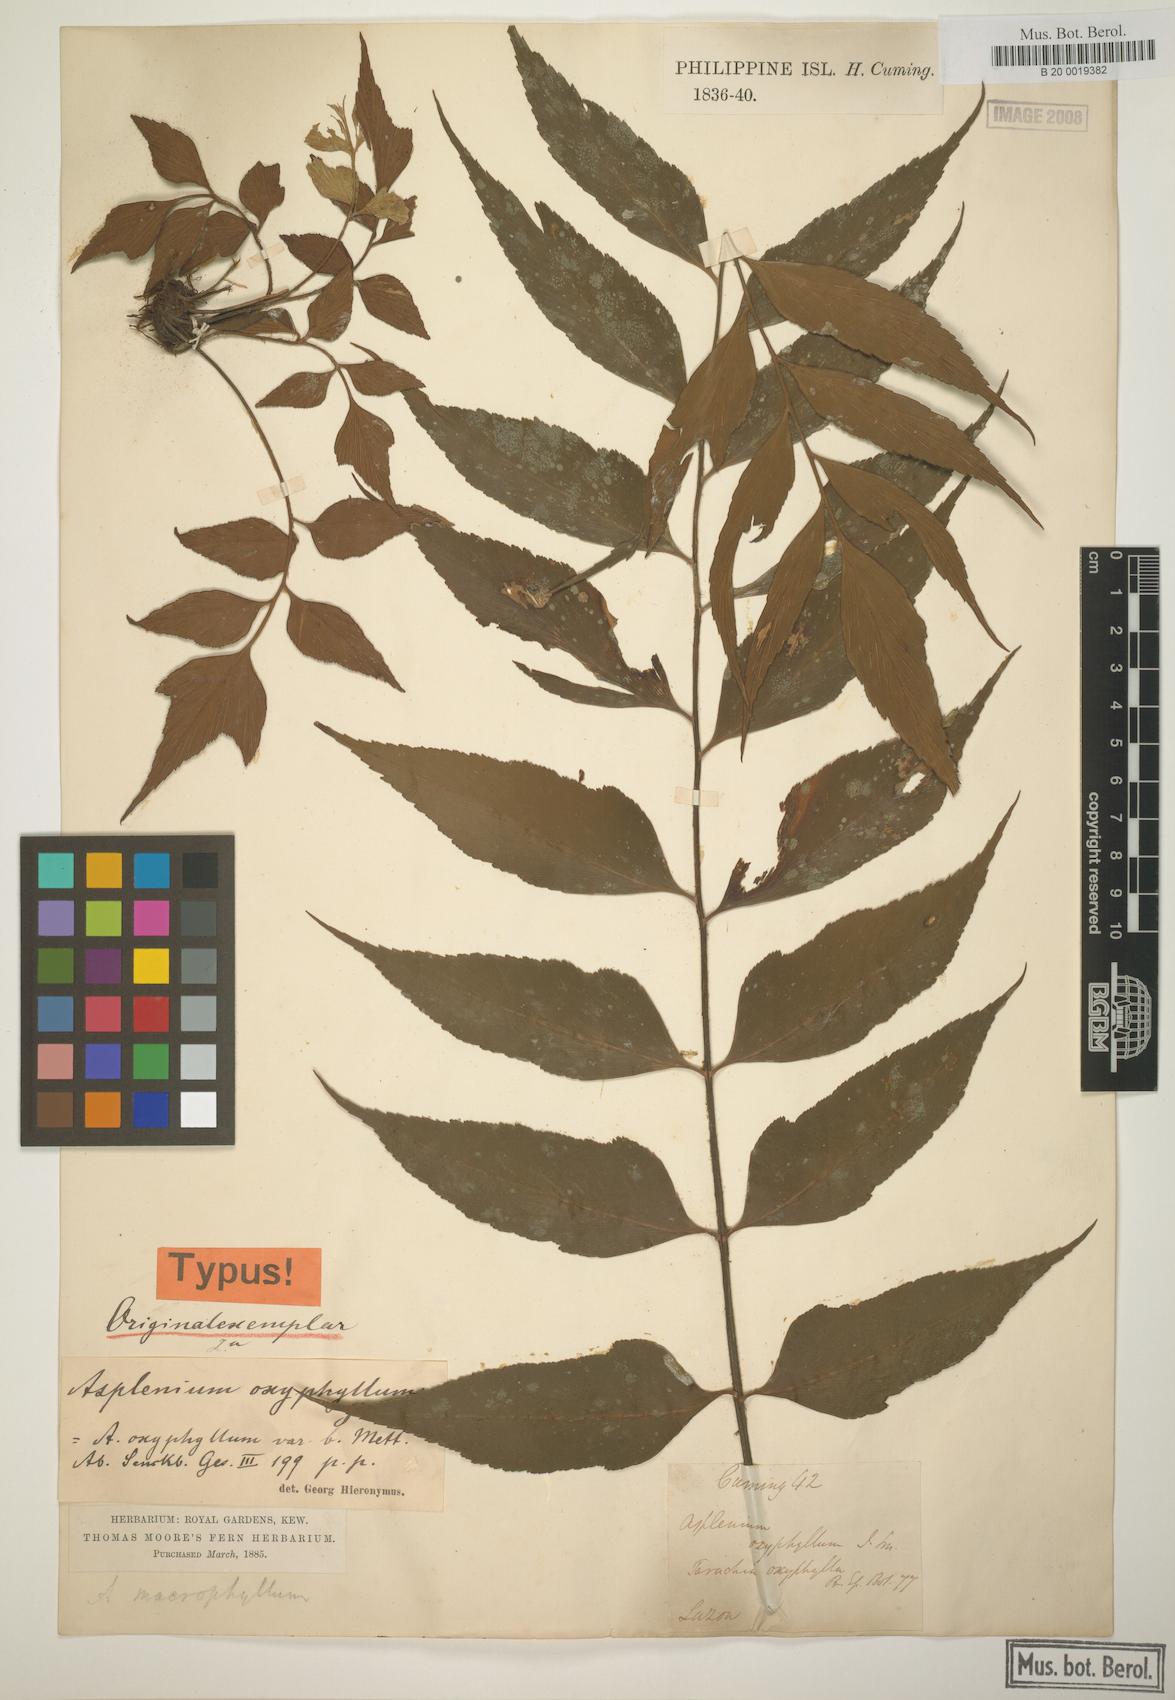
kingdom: Plantae
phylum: Tracheophyta
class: Polypodiopsida
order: Polypodiales
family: Athyriaceae
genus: Athyrium
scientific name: Athyrium puncticaule
